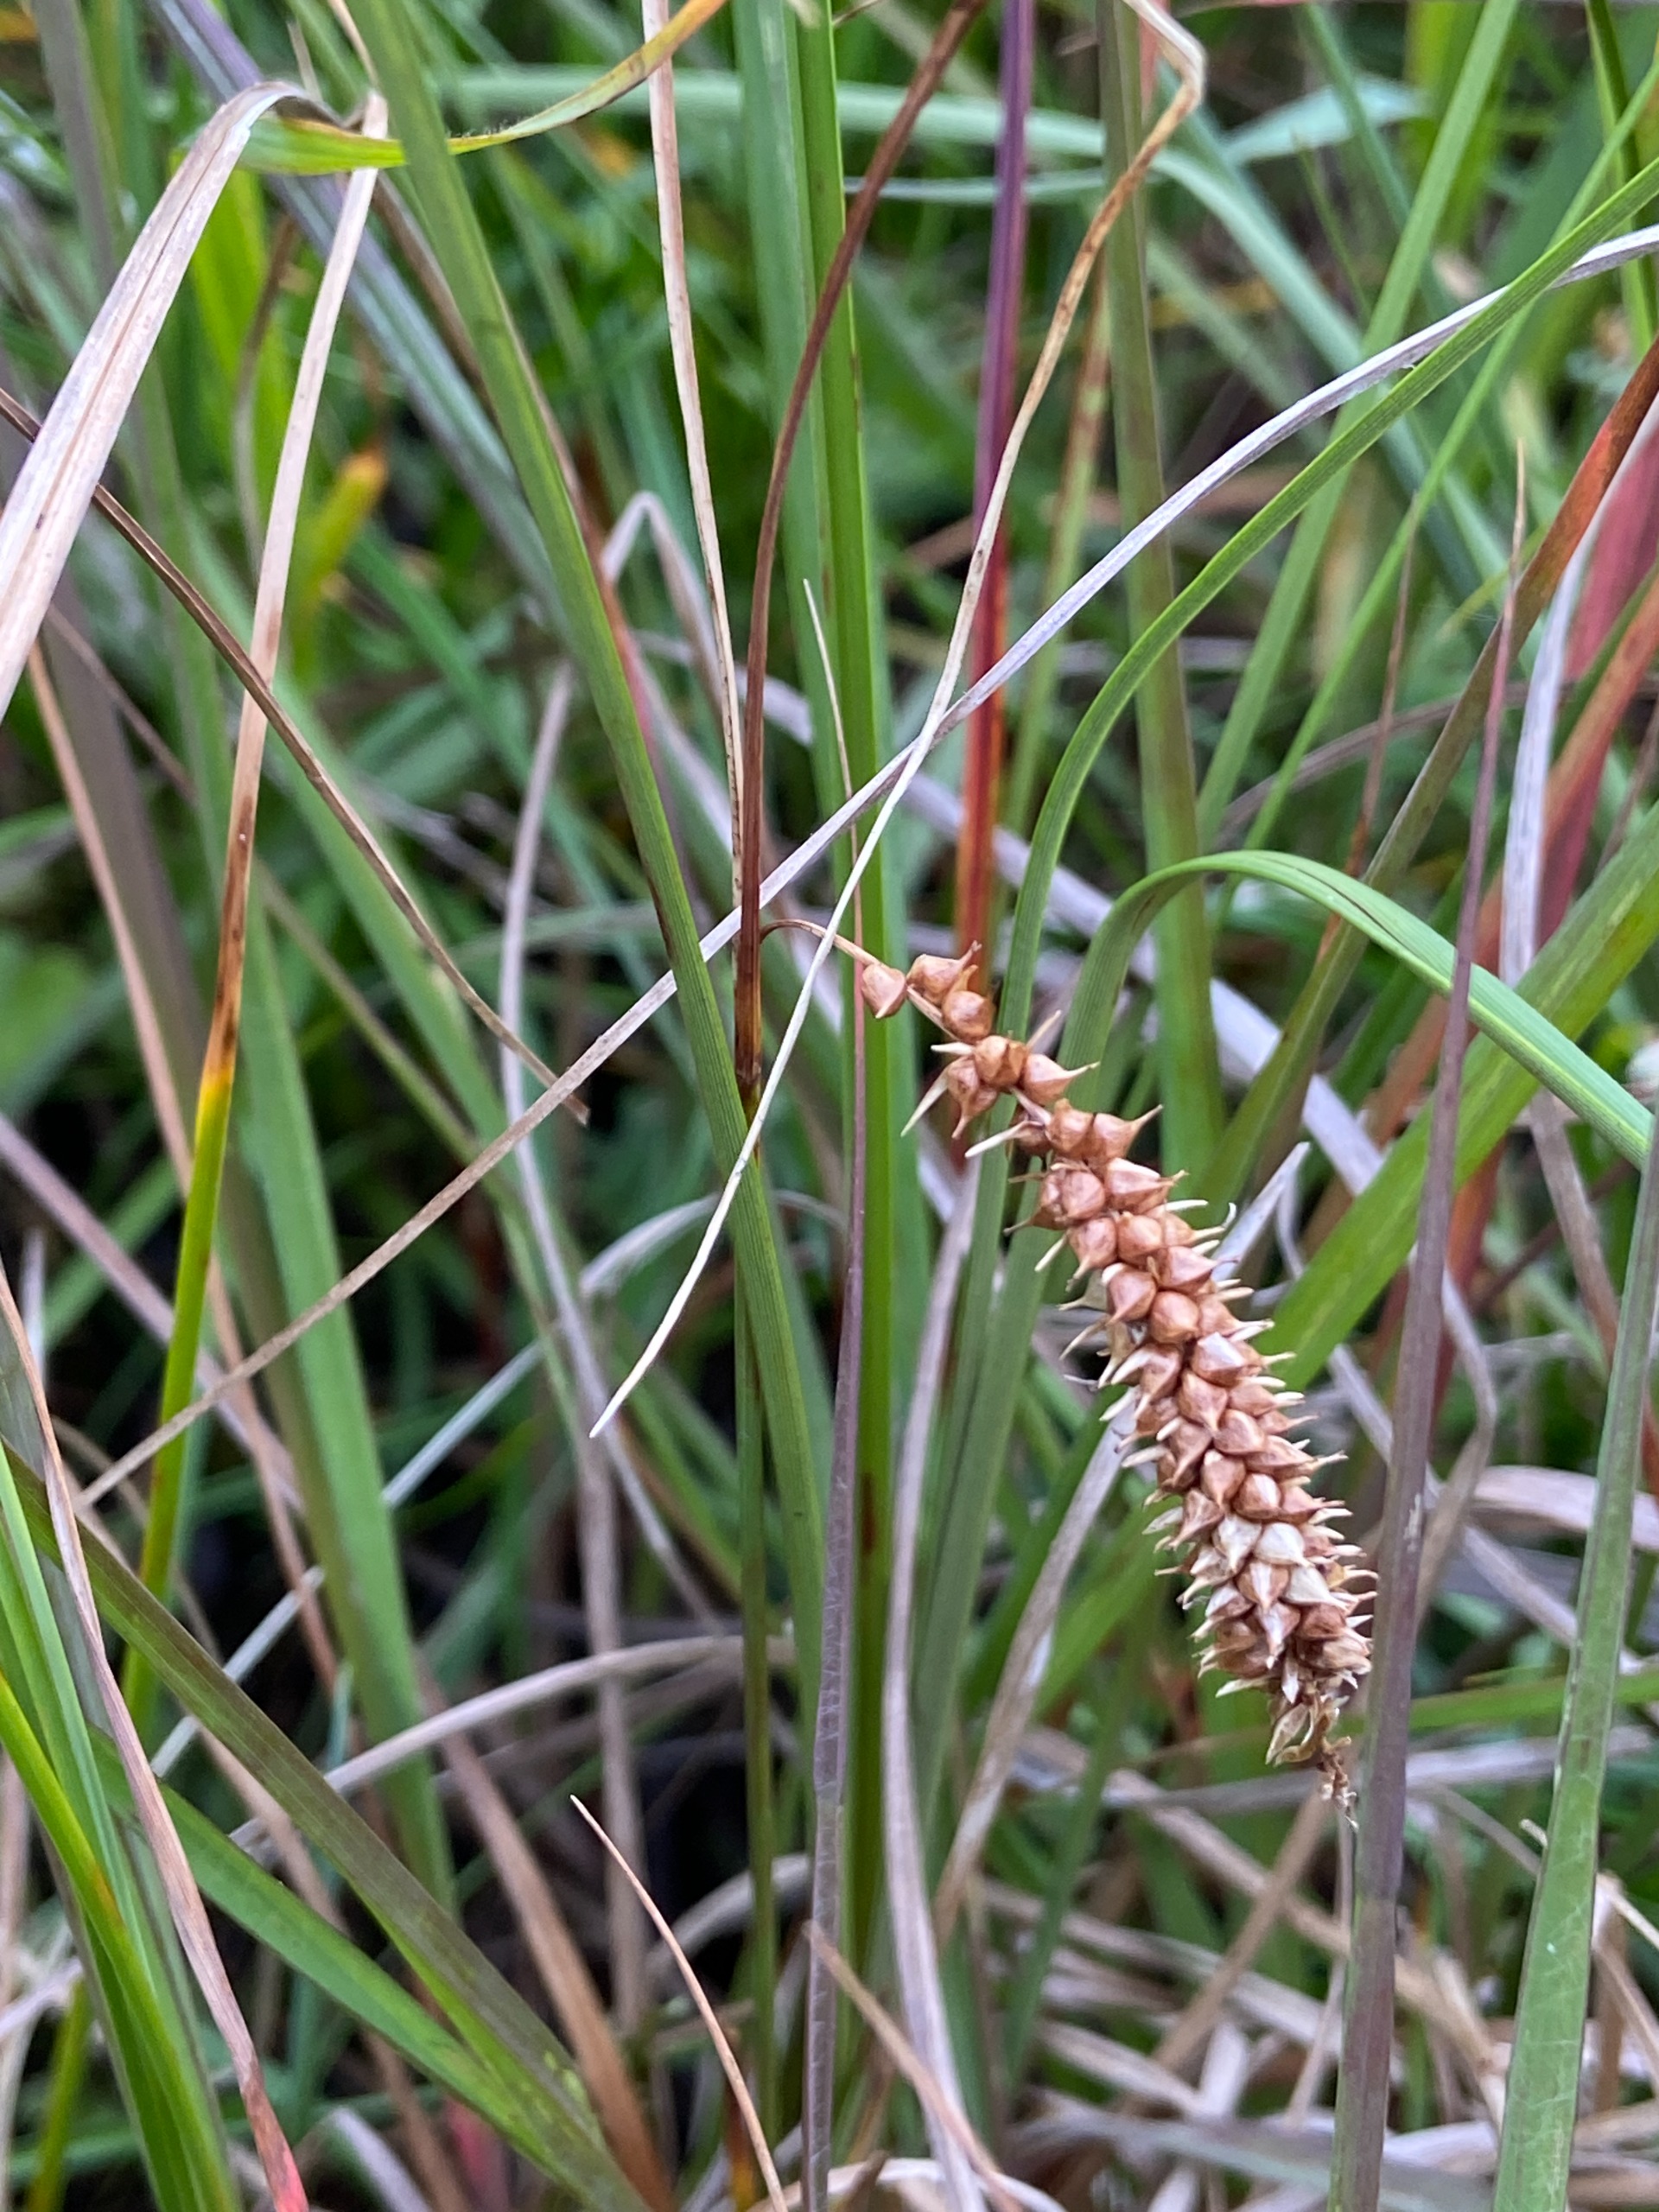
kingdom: Plantae
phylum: Tracheophyta
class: Liliopsida
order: Poales
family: Cyperaceae
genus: Carex
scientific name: Carex rostrata
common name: Næb-star
